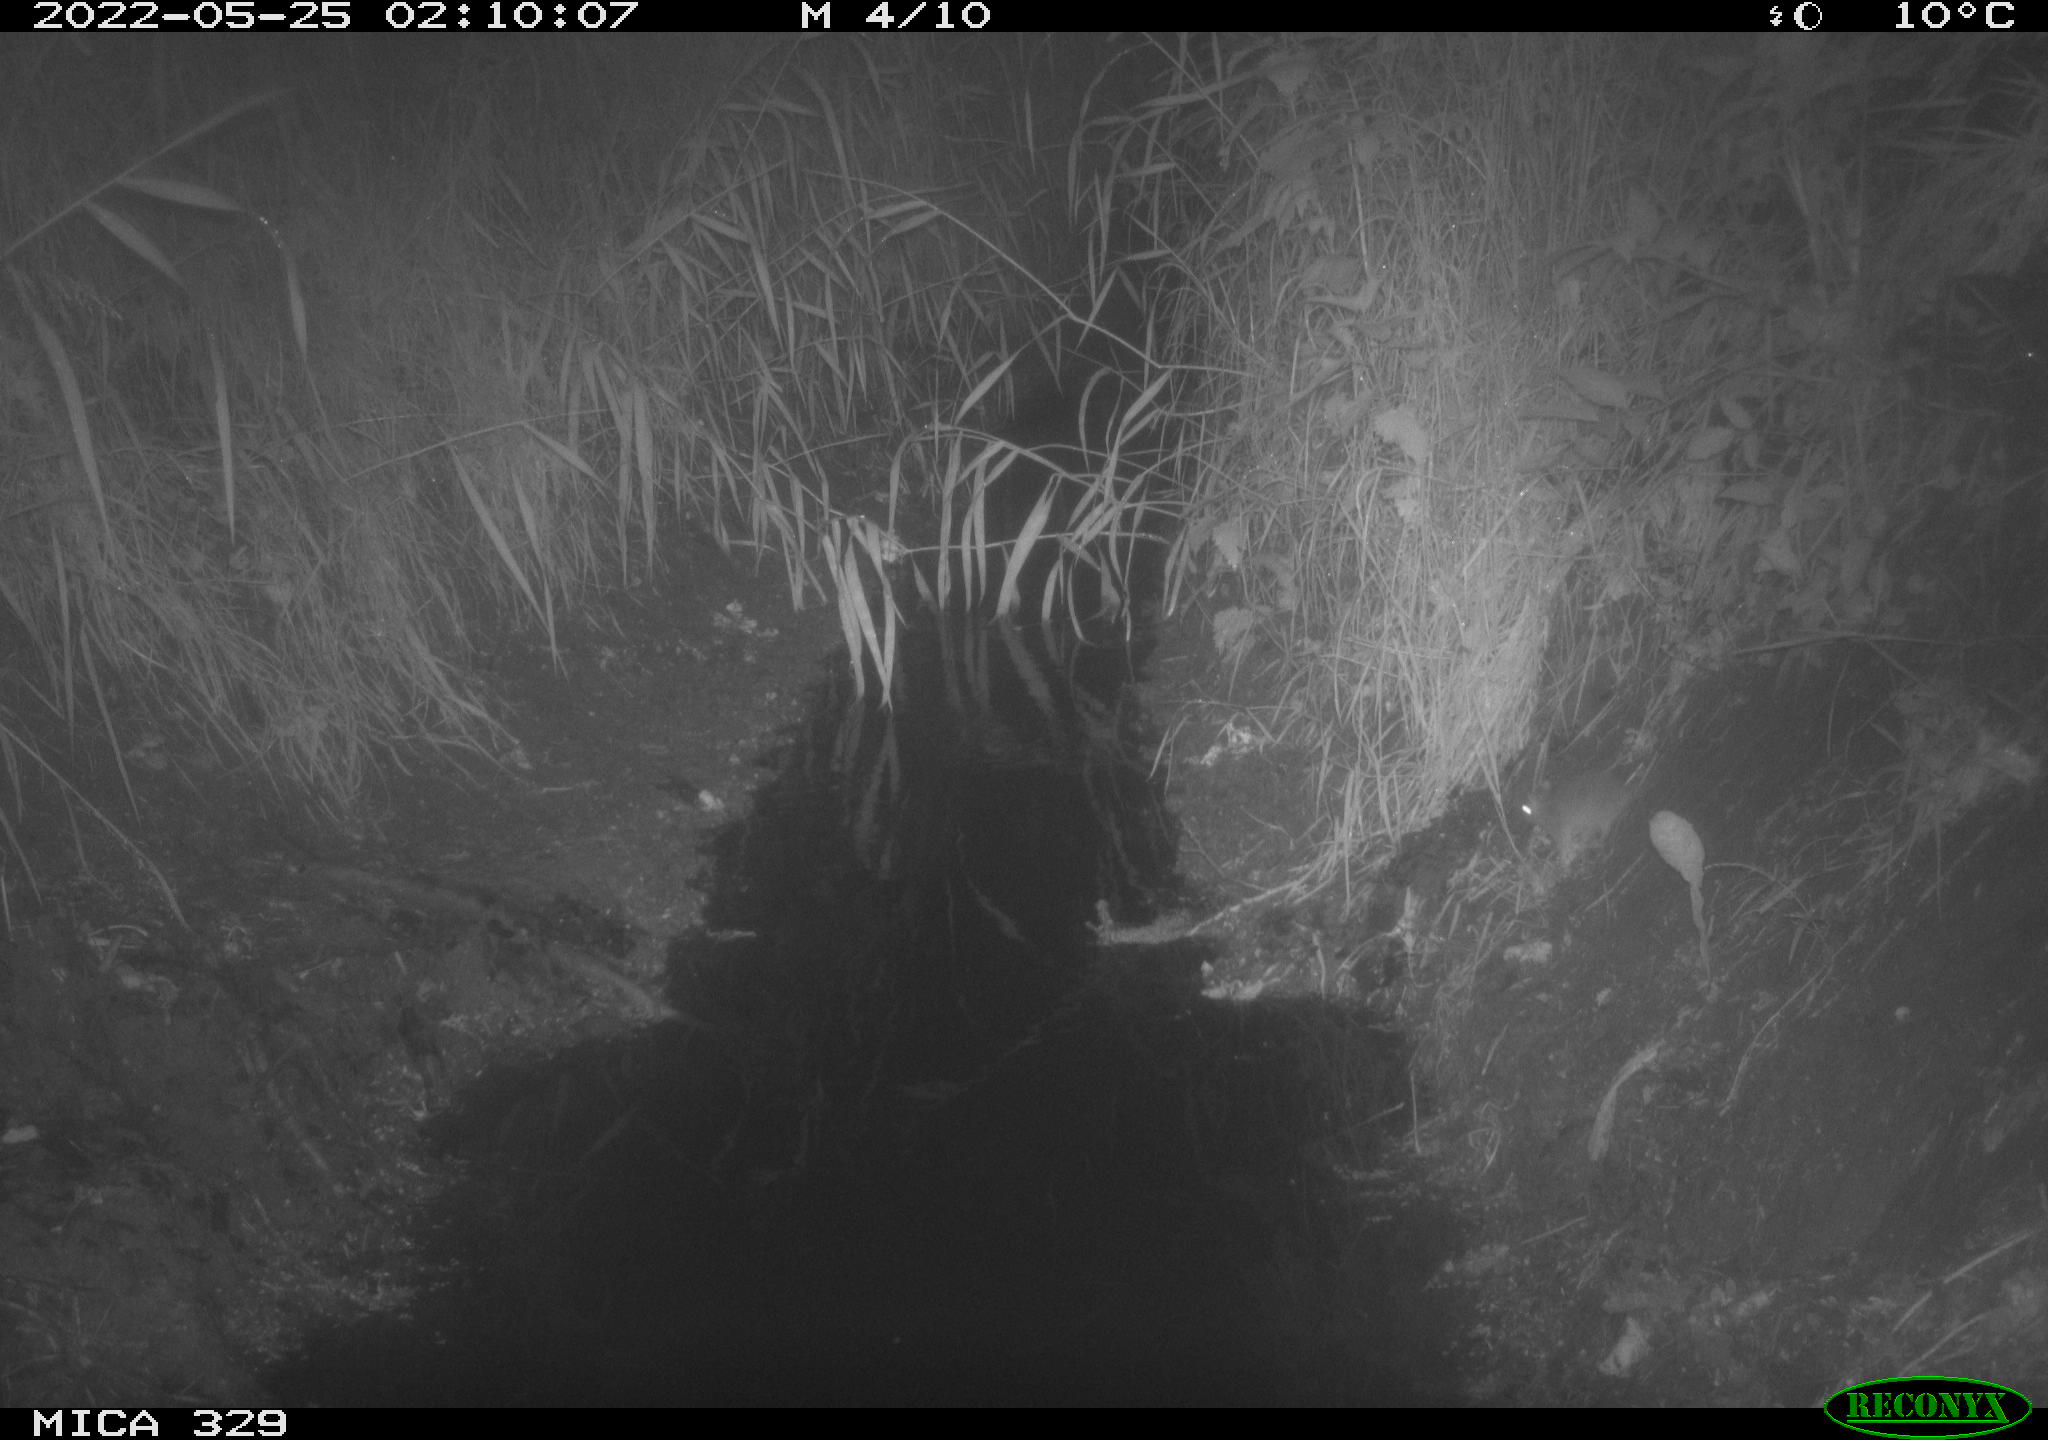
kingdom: Animalia
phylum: Chordata
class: Mammalia
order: Rodentia
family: Muridae
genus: Rattus
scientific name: Rattus norvegicus
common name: Brown rat
